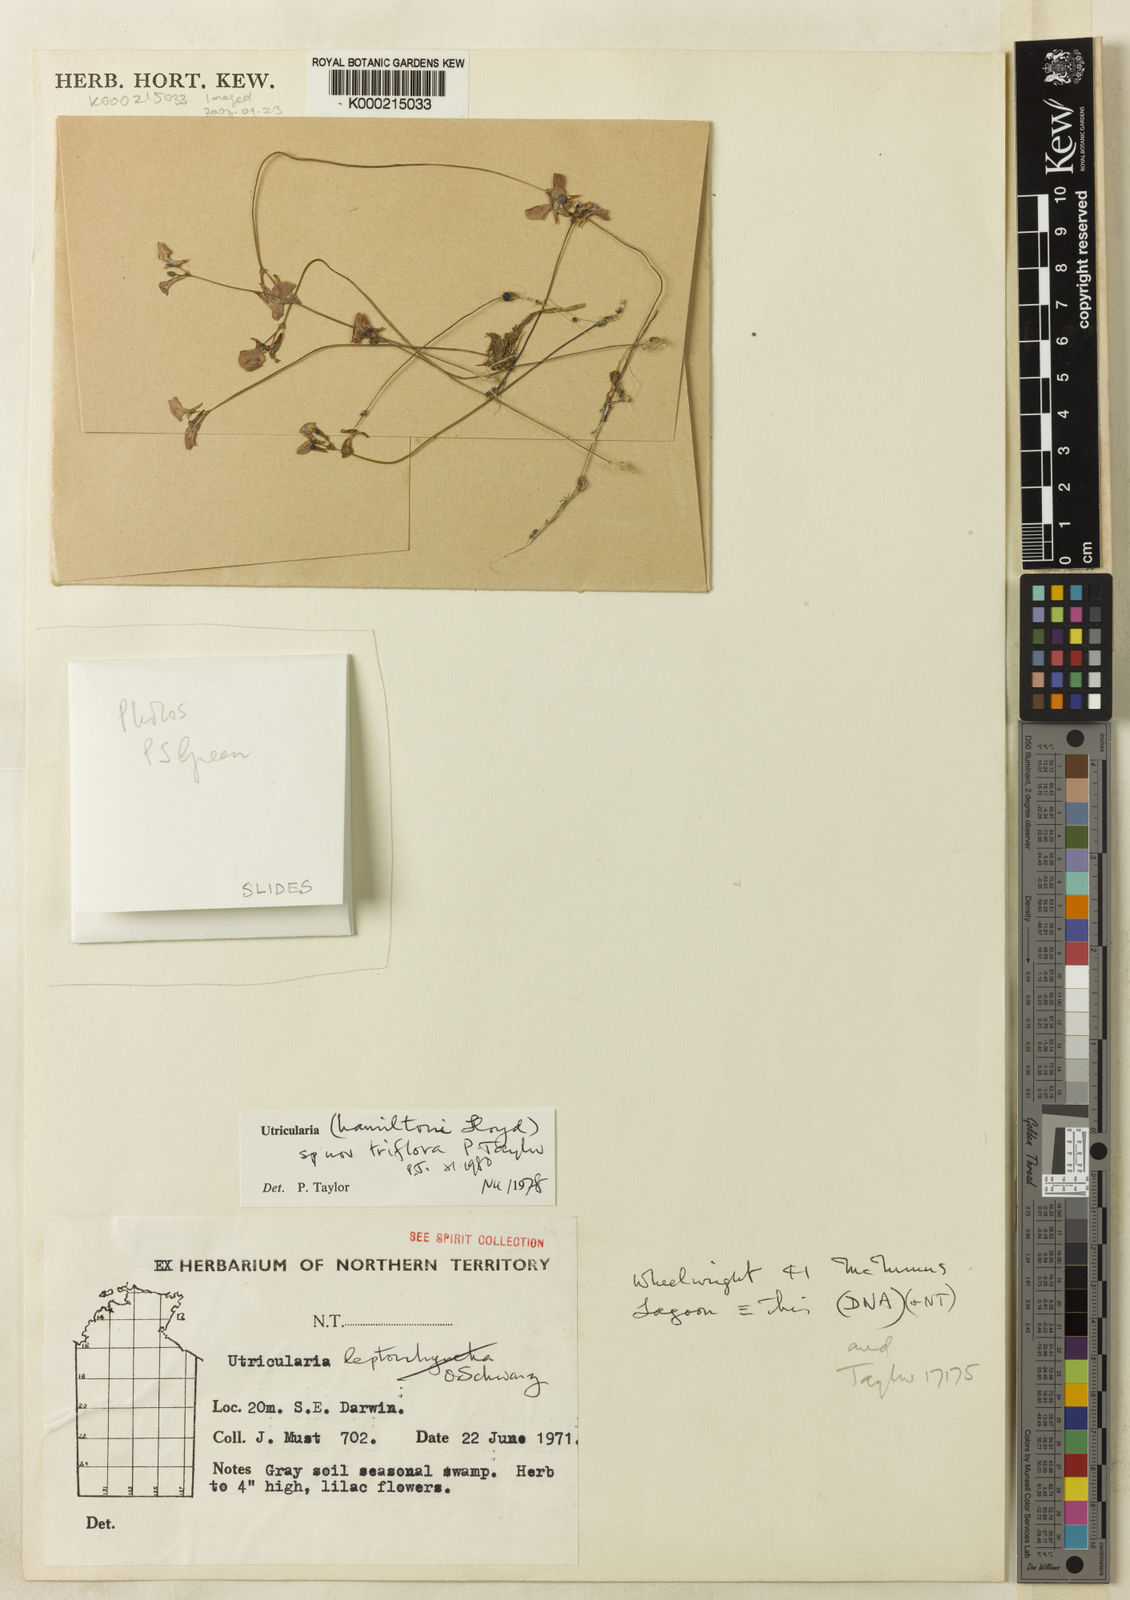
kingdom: Plantae
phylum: Tracheophyta
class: Magnoliopsida
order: Lamiales
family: Lentibulariaceae
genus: Utricularia
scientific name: Utricularia triflora
